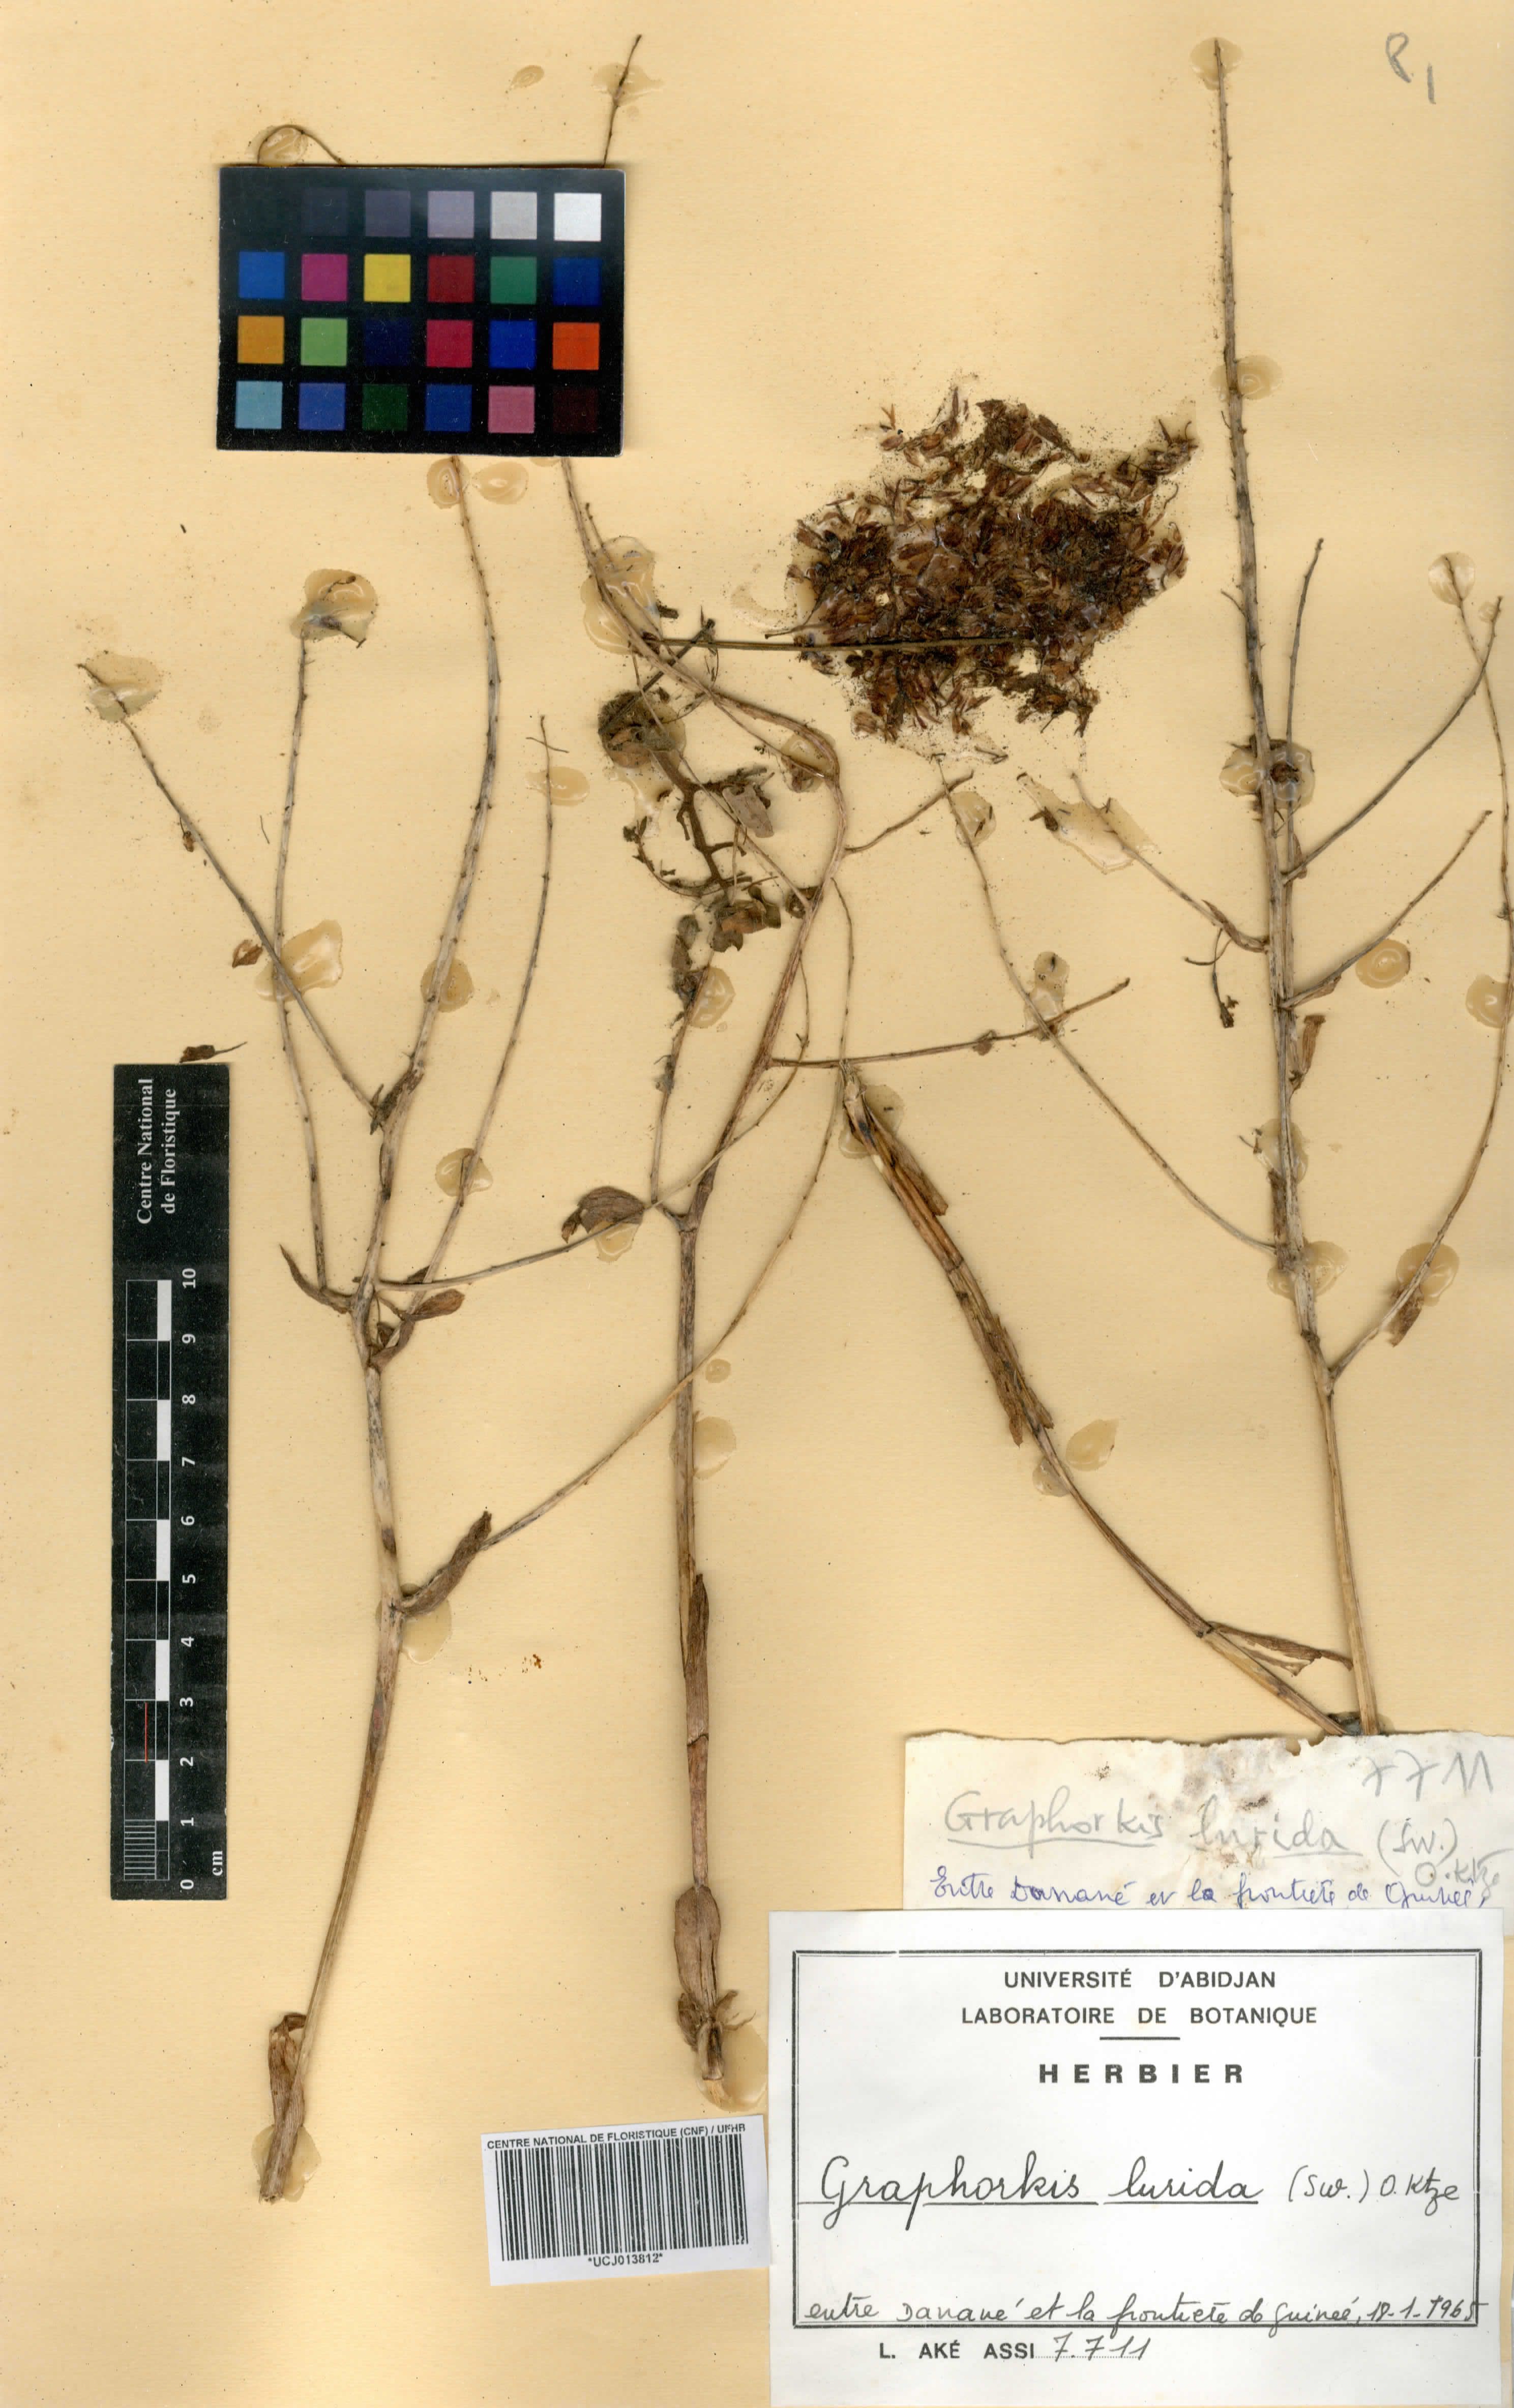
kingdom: Plantae
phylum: Tracheophyta
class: Liliopsida
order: Asparagales
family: Orchidaceae
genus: Graphorkis
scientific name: Graphorkis lurida
